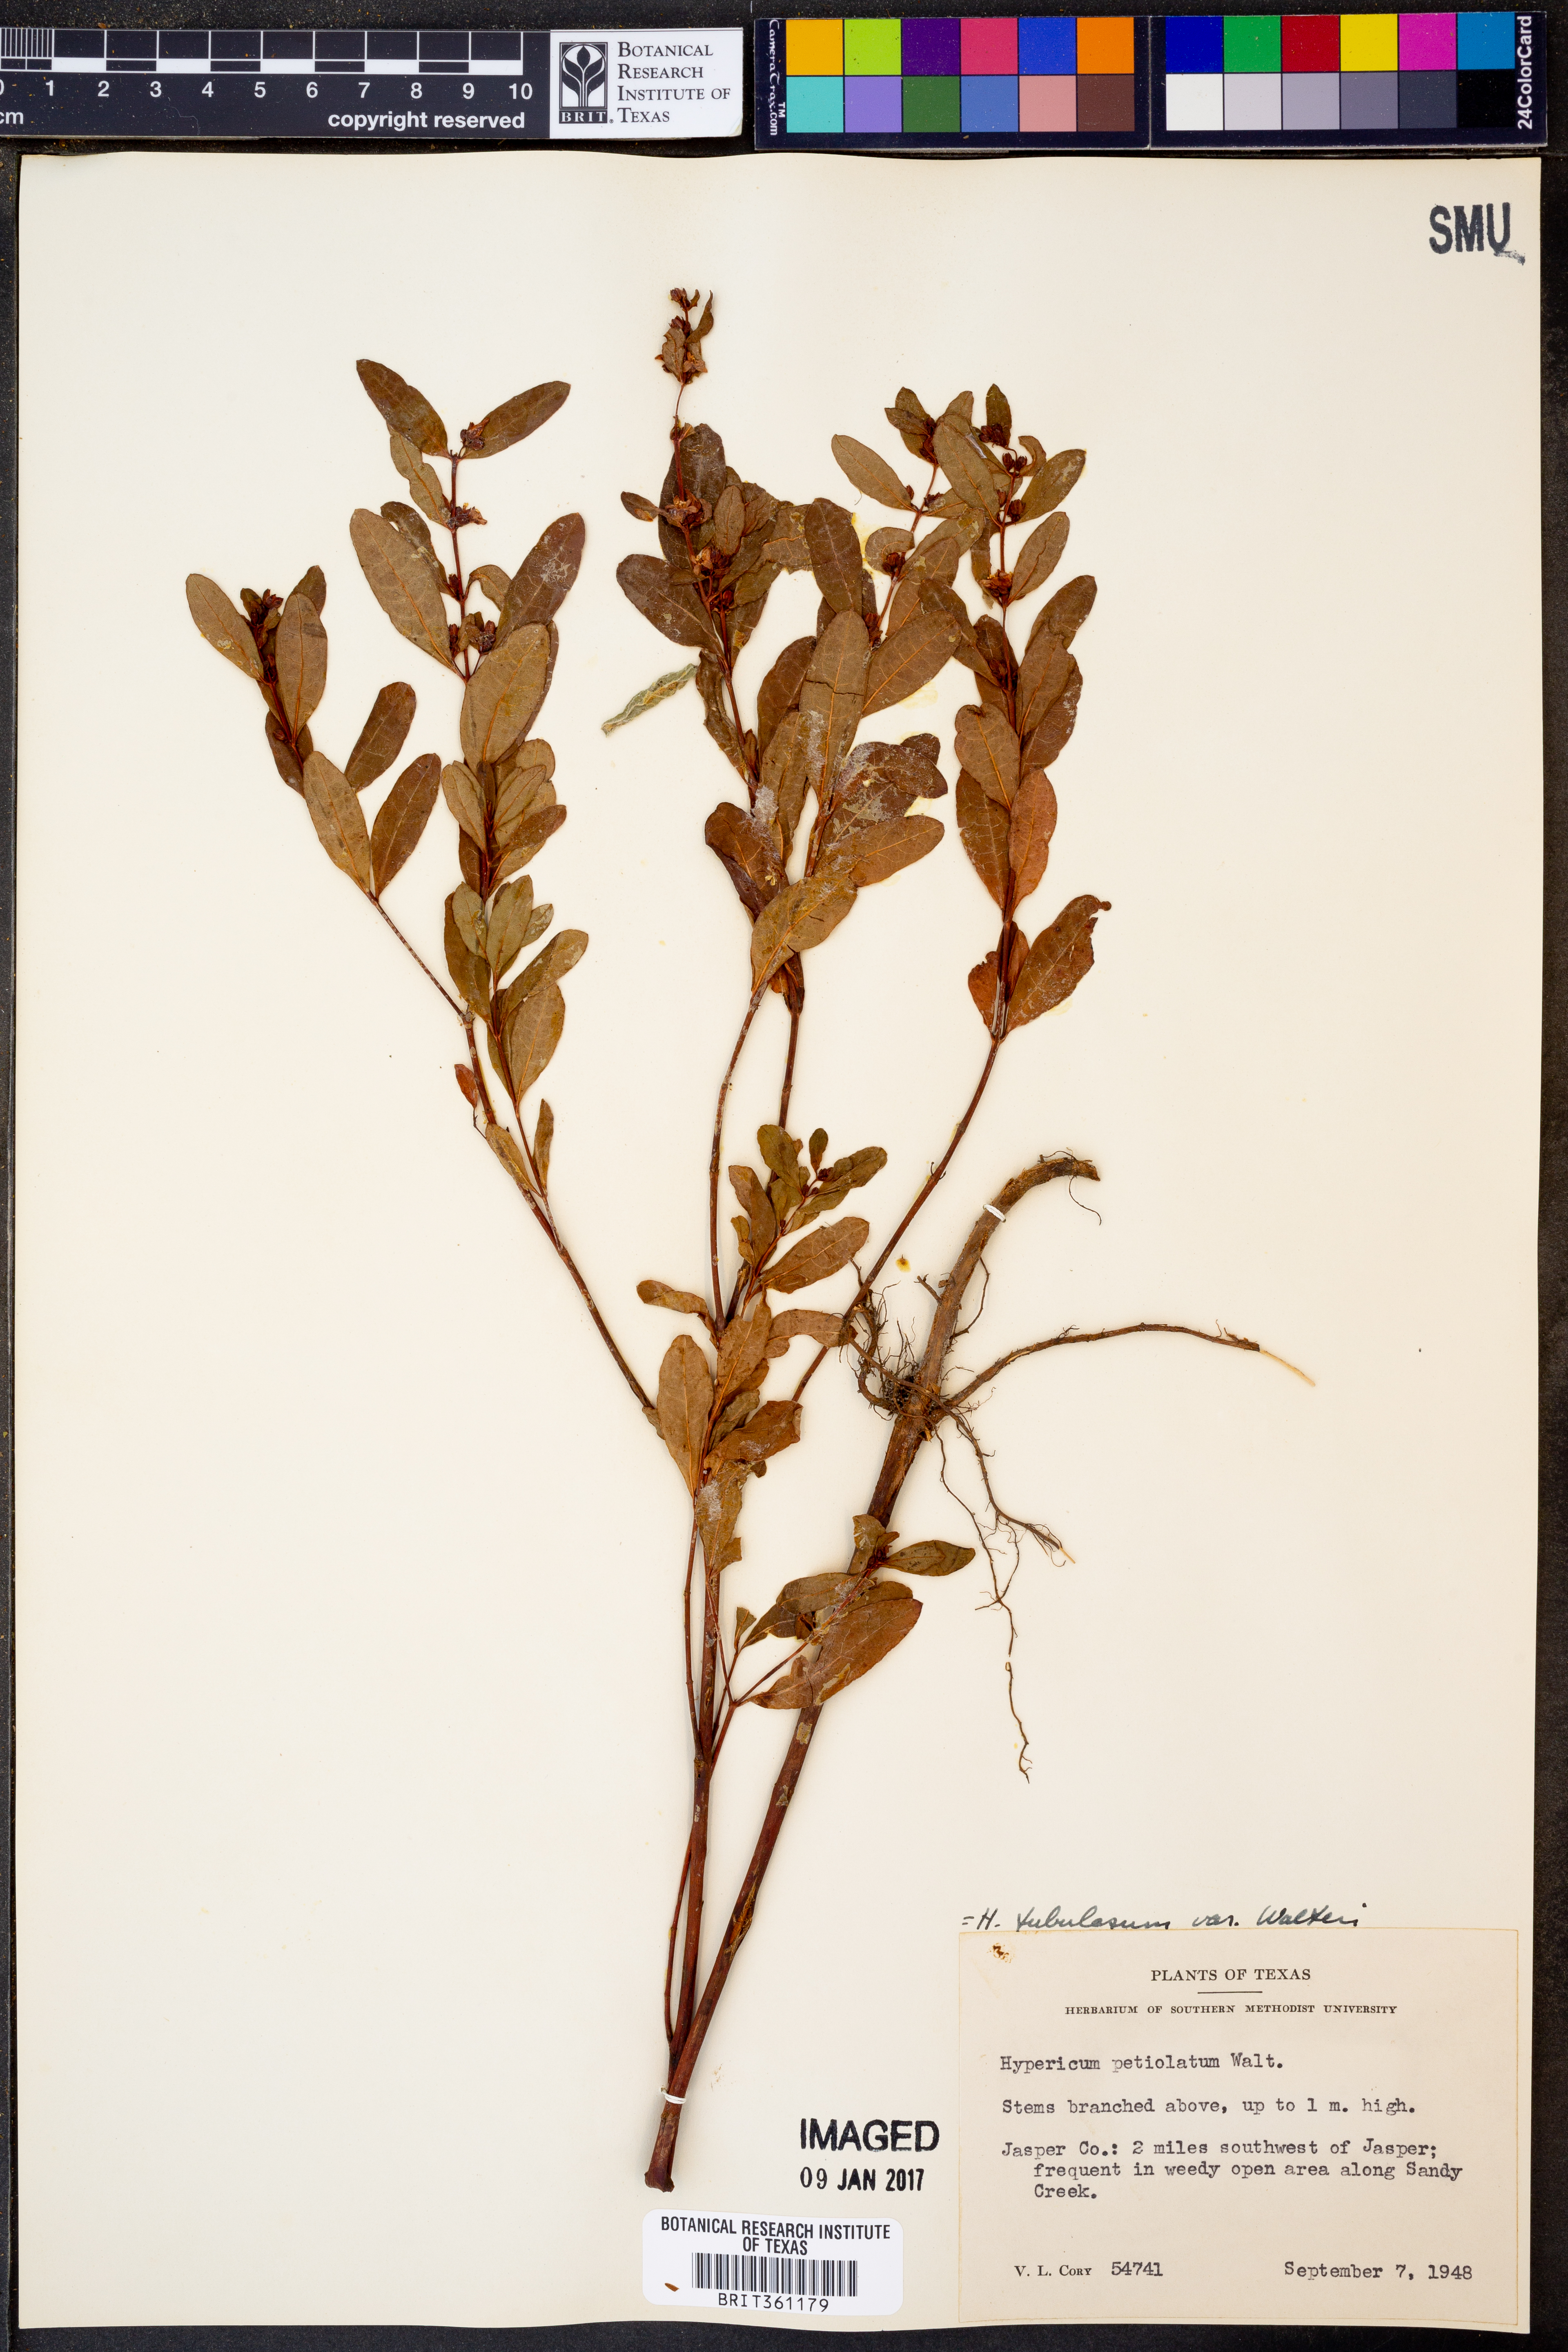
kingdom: Plantae
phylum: Tracheophyta
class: Magnoliopsida
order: Malpighiales
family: Hypericaceae
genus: Triadenum
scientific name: Triadenum walteri
